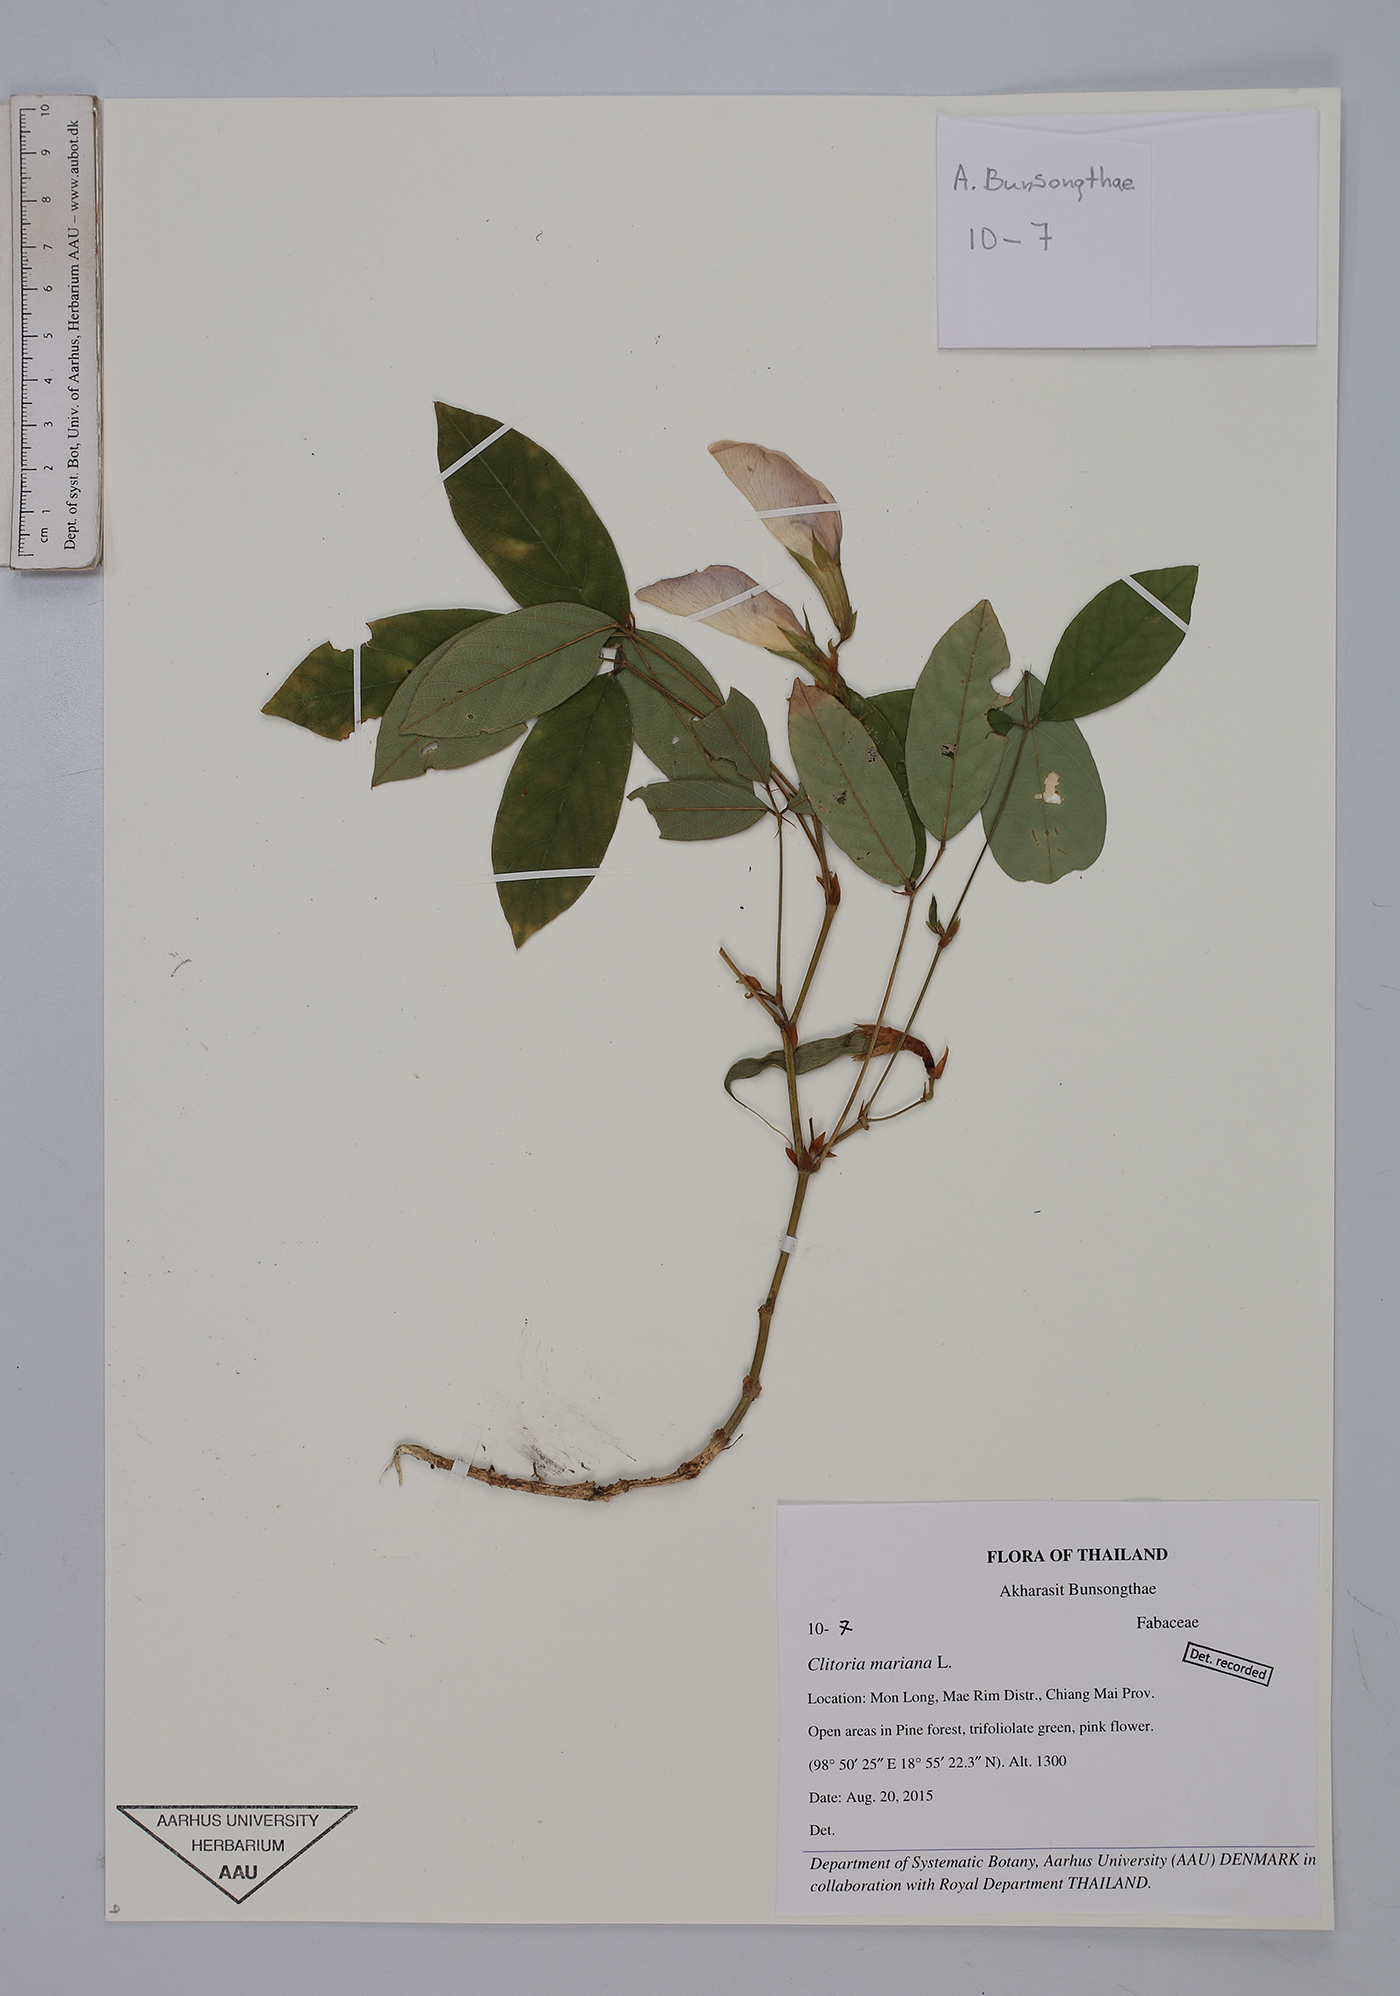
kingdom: Plantae
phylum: Tracheophyta
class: Magnoliopsida
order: Fabales
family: Fabaceae
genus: Clitoria
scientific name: Clitoria mariana
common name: Butterfly-pea
